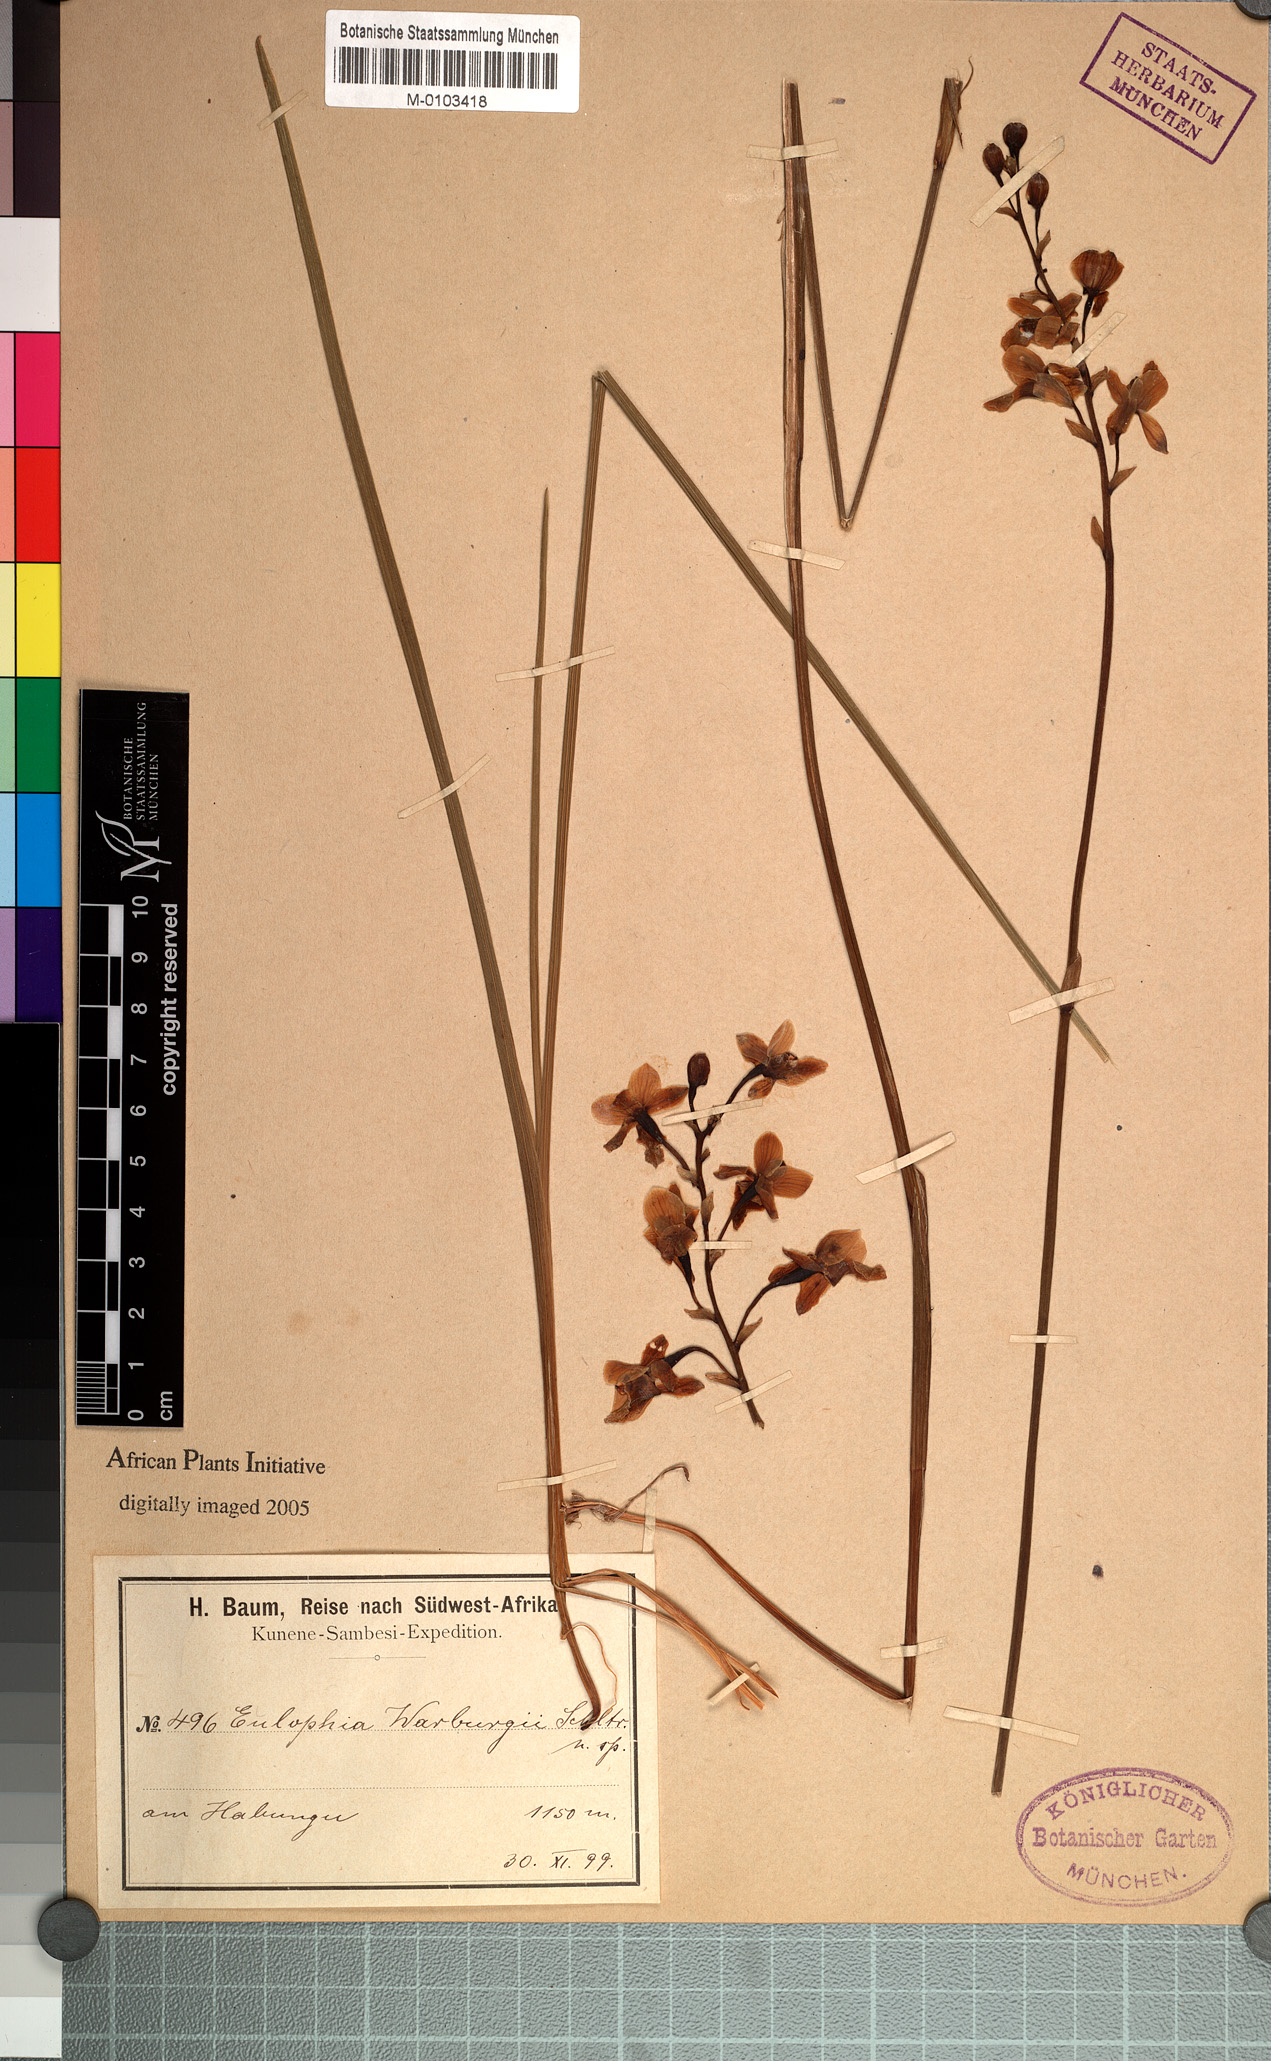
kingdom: Plantae
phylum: Tracheophyta
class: Liliopsida
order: Asparagales
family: Orchidaceae
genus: Eulophia
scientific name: Eulophia malangana
